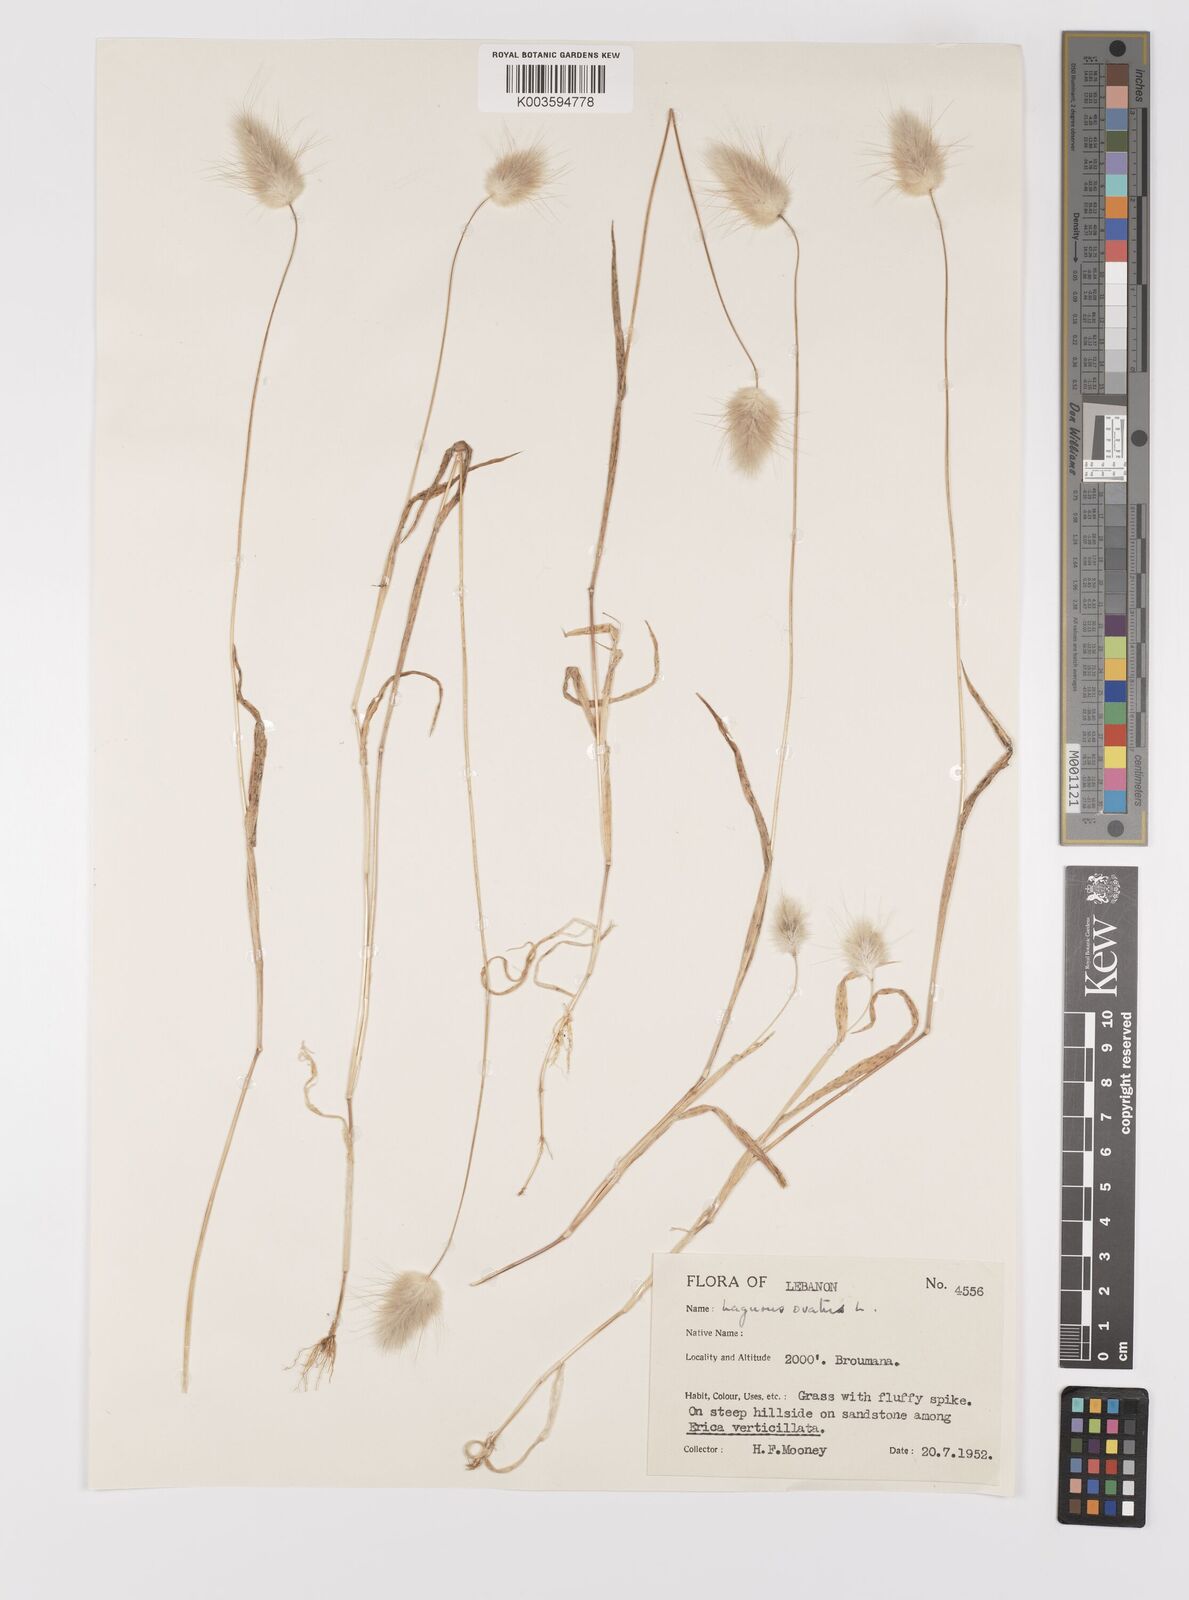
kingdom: Plantae
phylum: Tracheophyta
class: Liliopsida
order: Poales
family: Poaceae
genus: Lagurus
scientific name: Lagurus ovatus
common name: Hare's-tail
